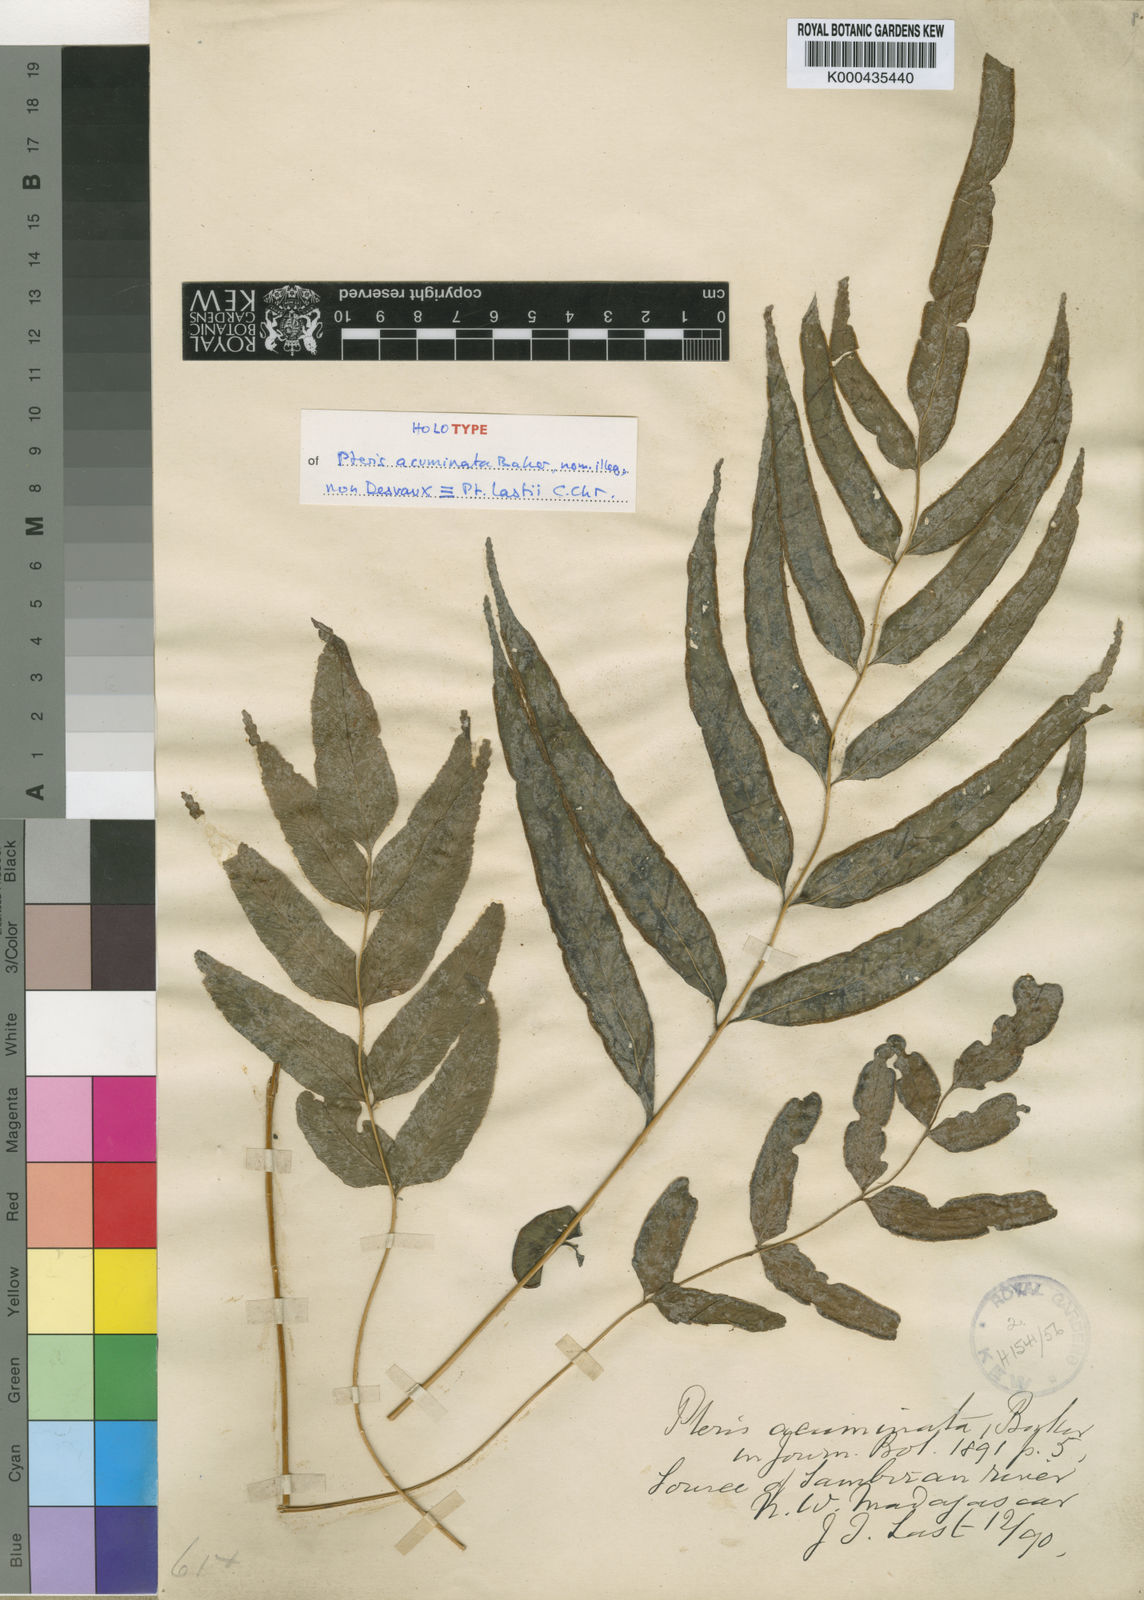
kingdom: Plantae
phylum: Tracheophyta
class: Polypodiopsida
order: Polypodiales
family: Pteridaceae
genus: Pteris
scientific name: Pteris lastii
